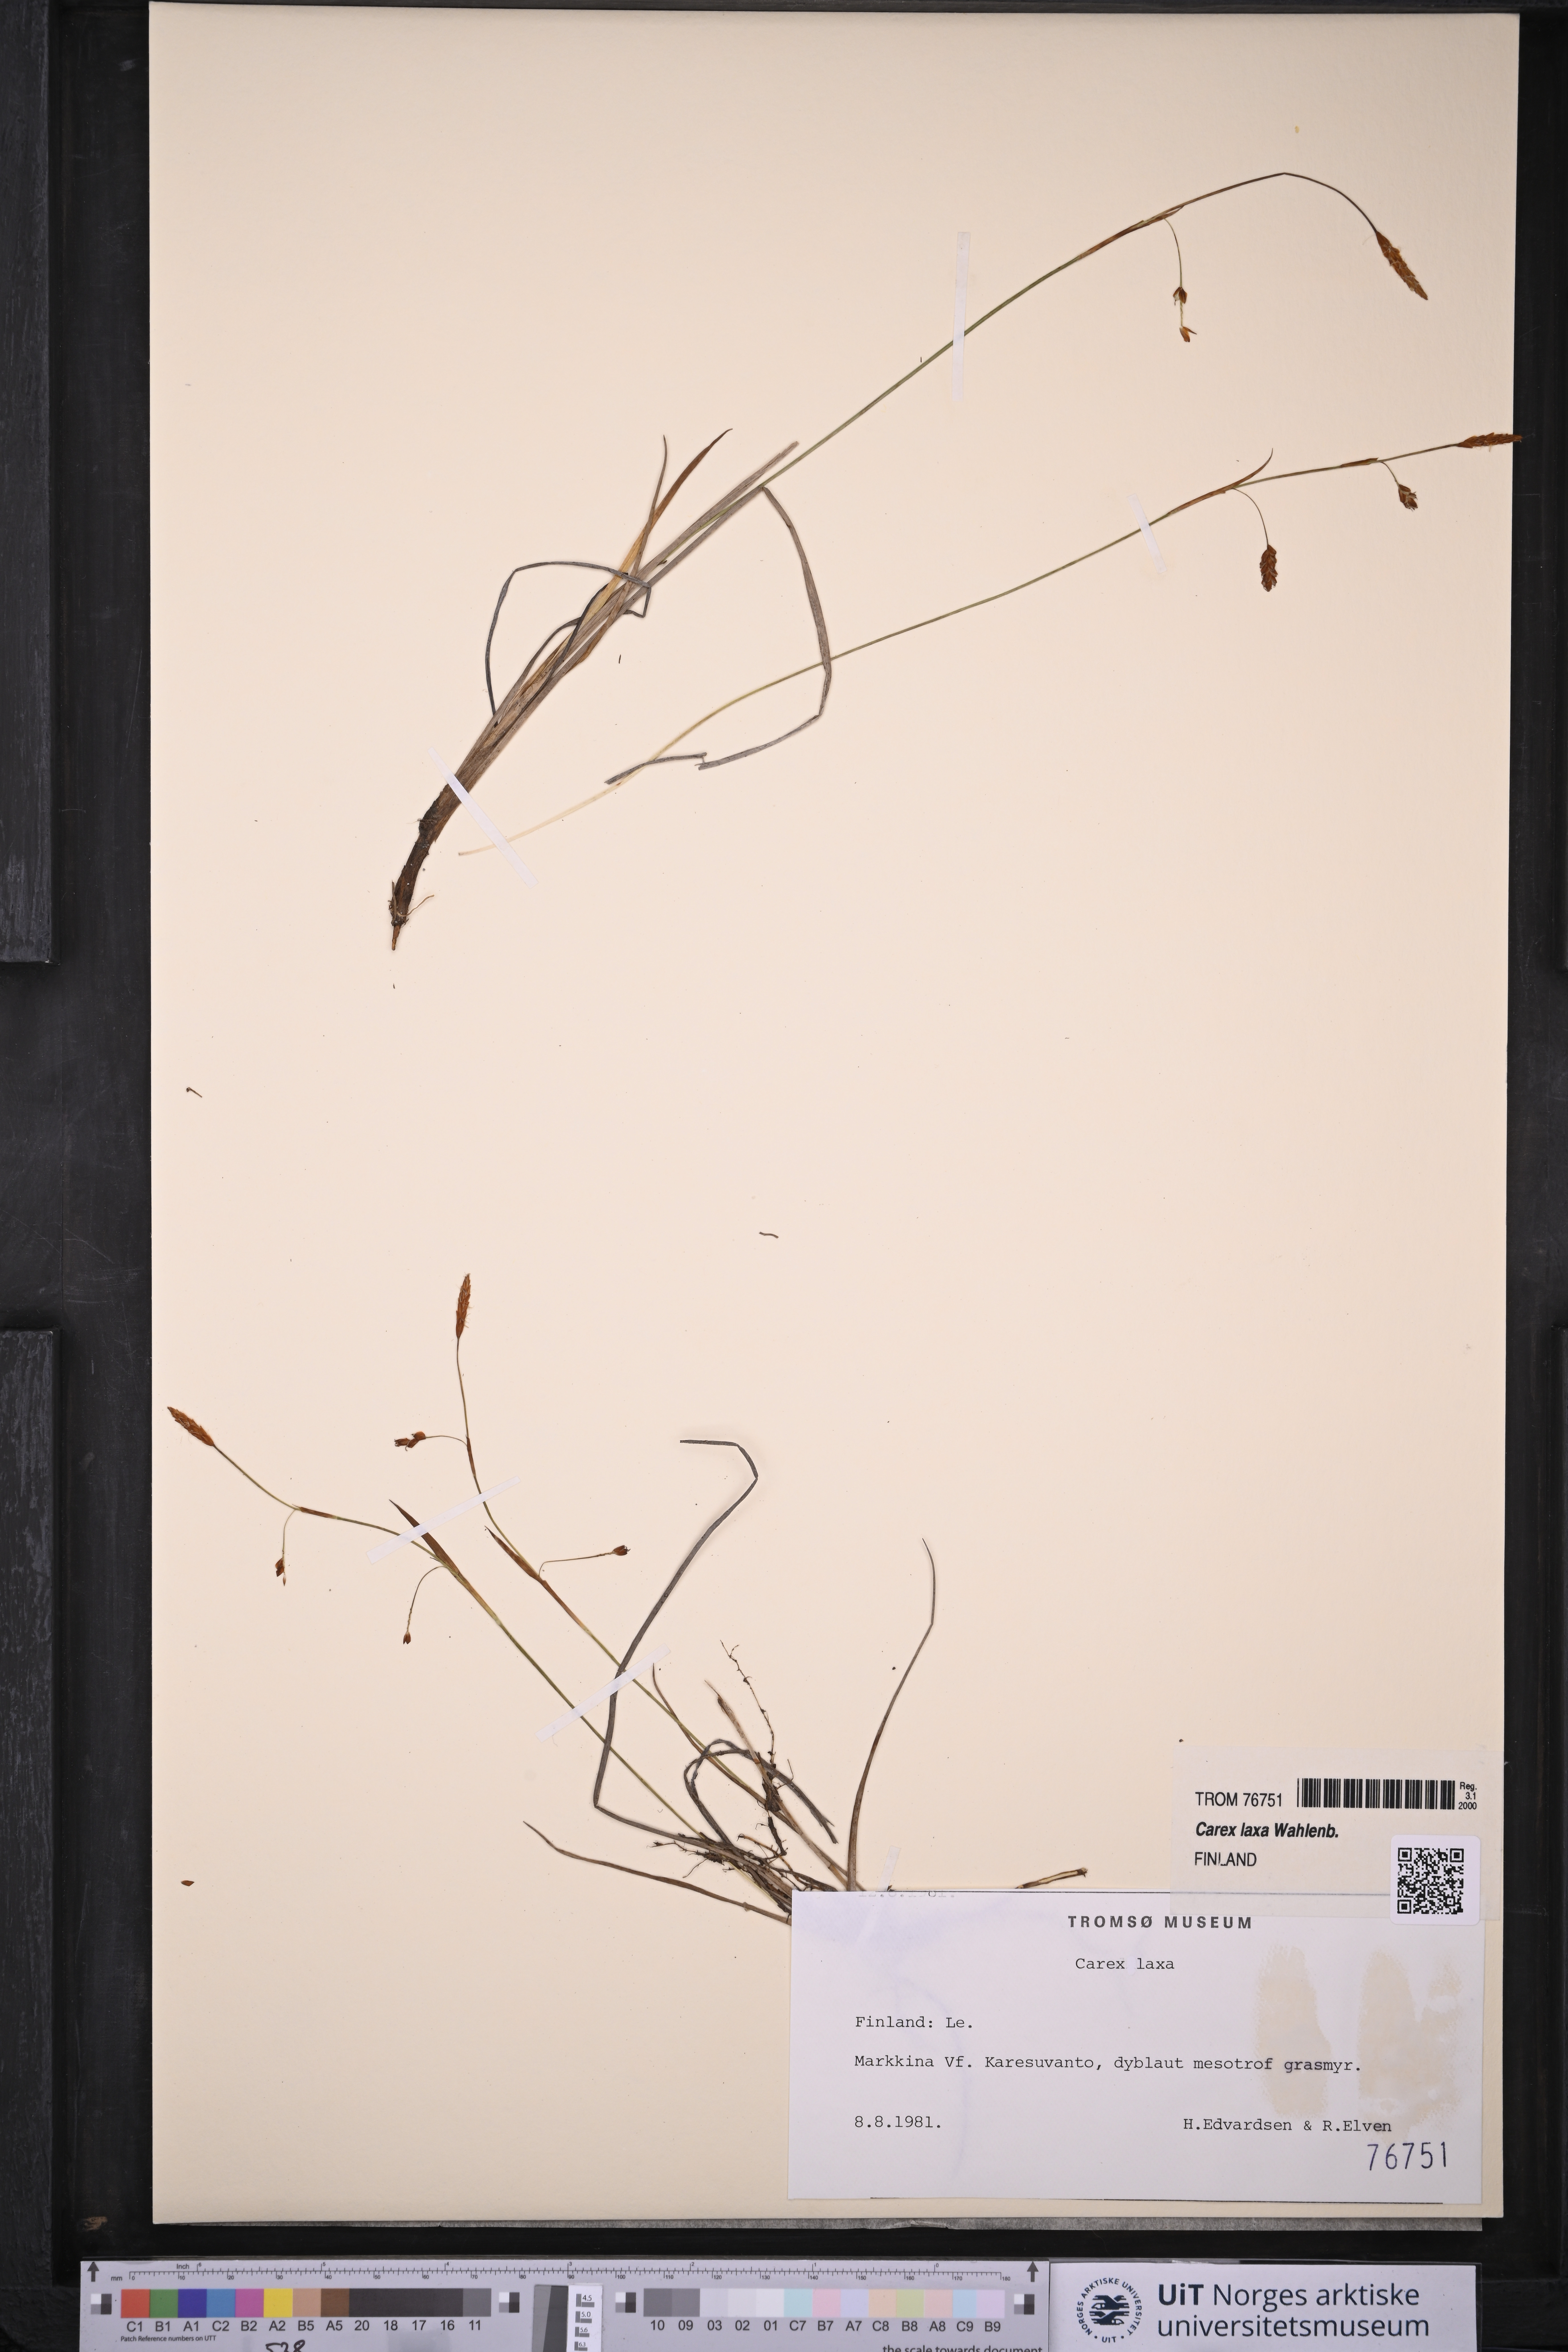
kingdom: Plantae
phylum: Tracheophyta
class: Liliopsida
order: Poales
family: Cyperaceae
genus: Carex
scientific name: Carex laxa
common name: Weak sedge
